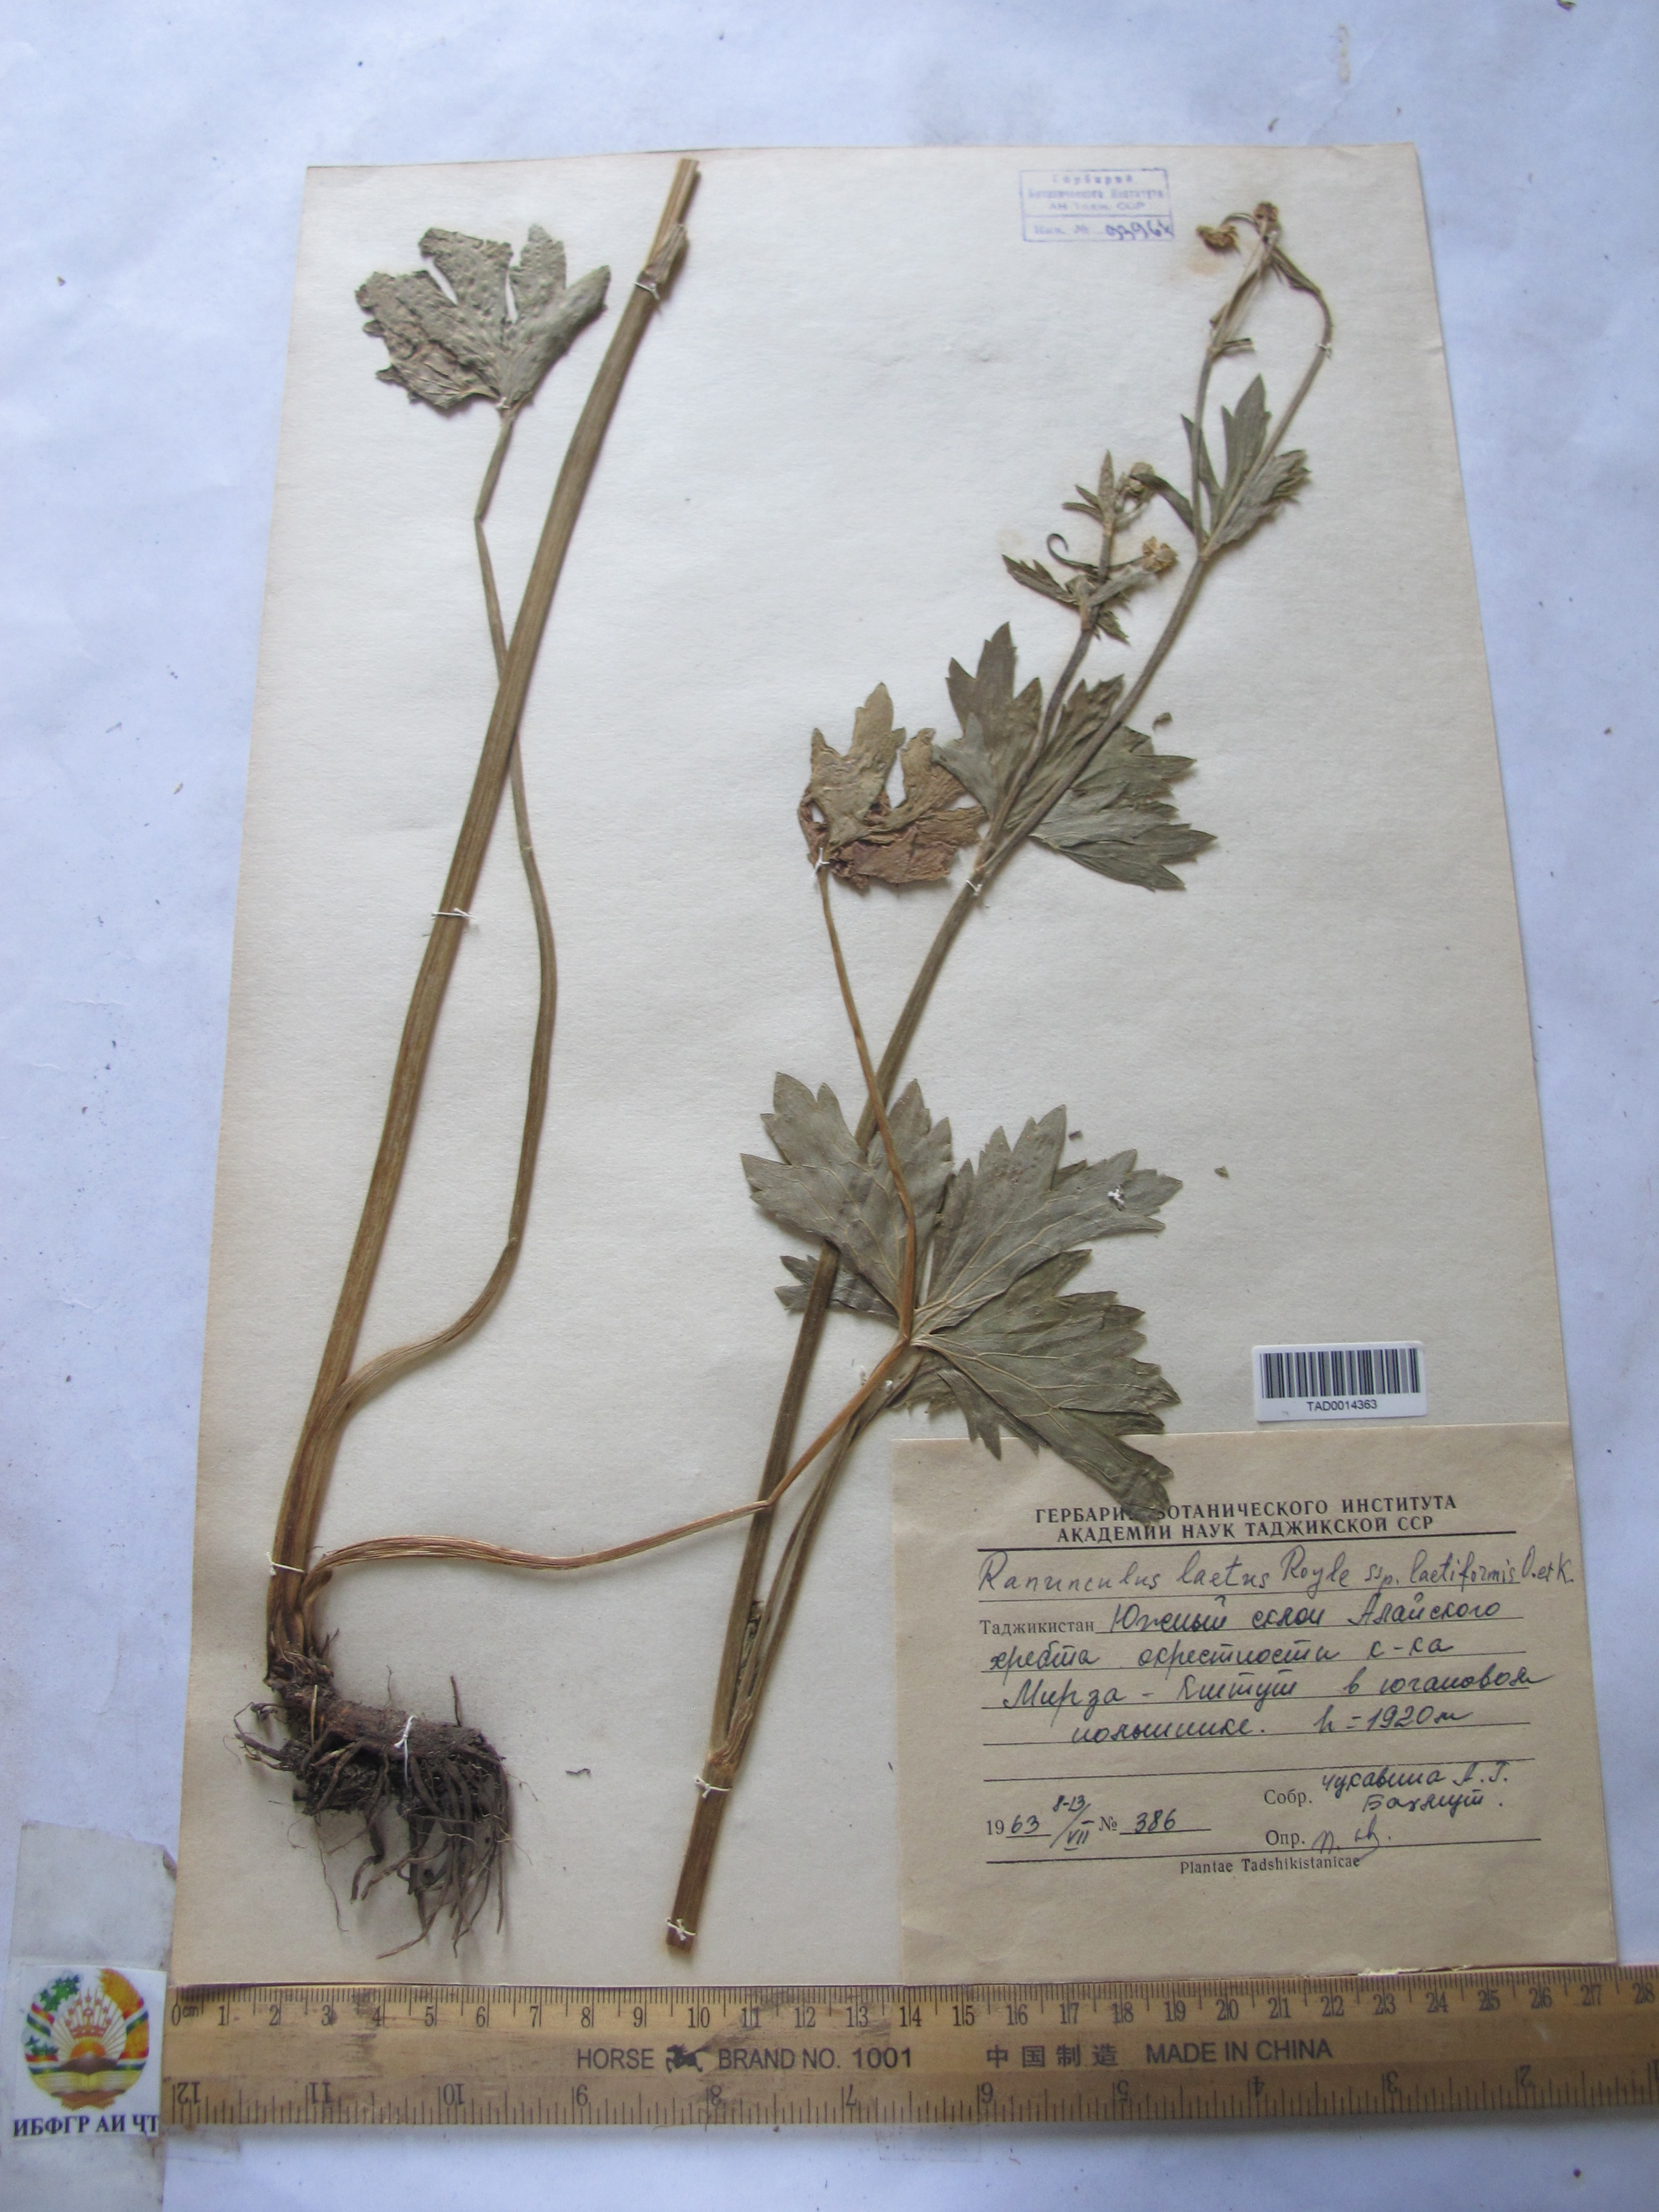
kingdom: Plantae
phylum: Tracheophyta
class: Magnoliopsida
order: Ranunculales
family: Ranunculaceae
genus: Ranunculus
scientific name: Ranunculus distans
